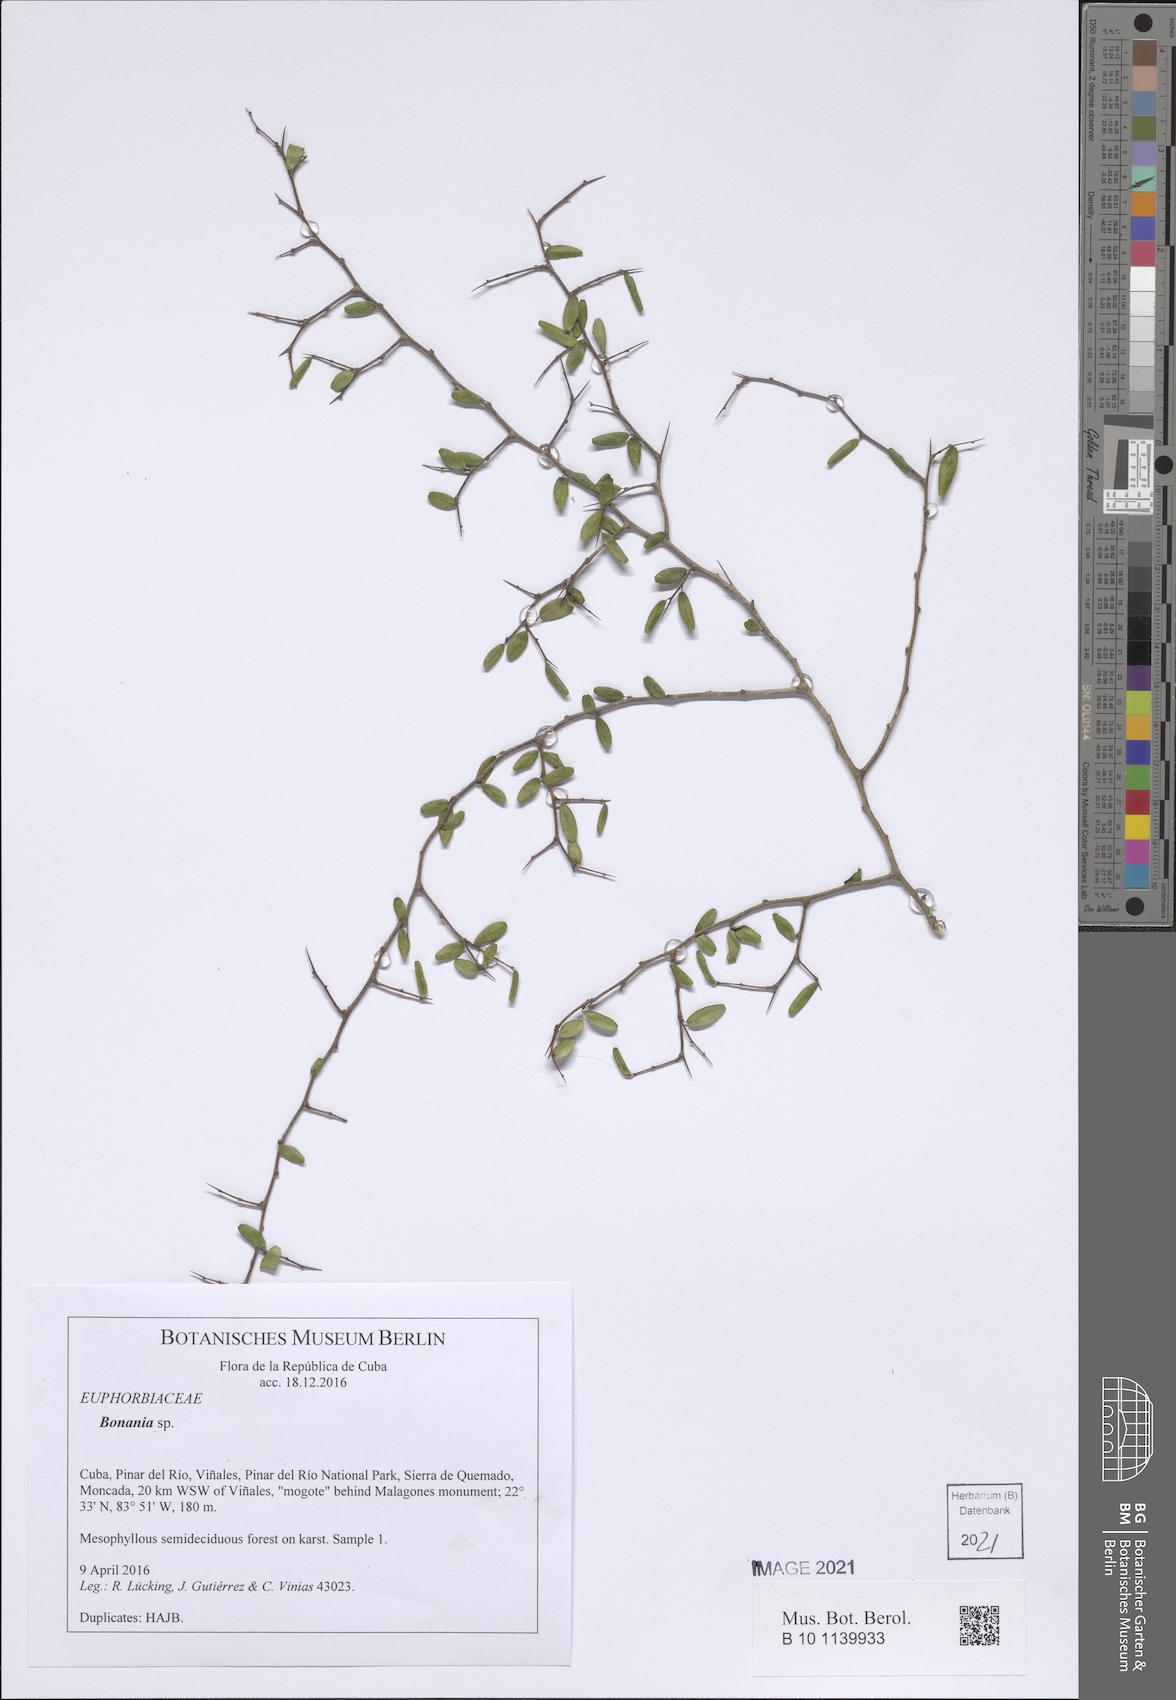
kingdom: Plantae
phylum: Tracheophyta
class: Magnoliopsida
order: Malpighiales
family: Euphorbiaceae
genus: Bonania
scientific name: Bonania
